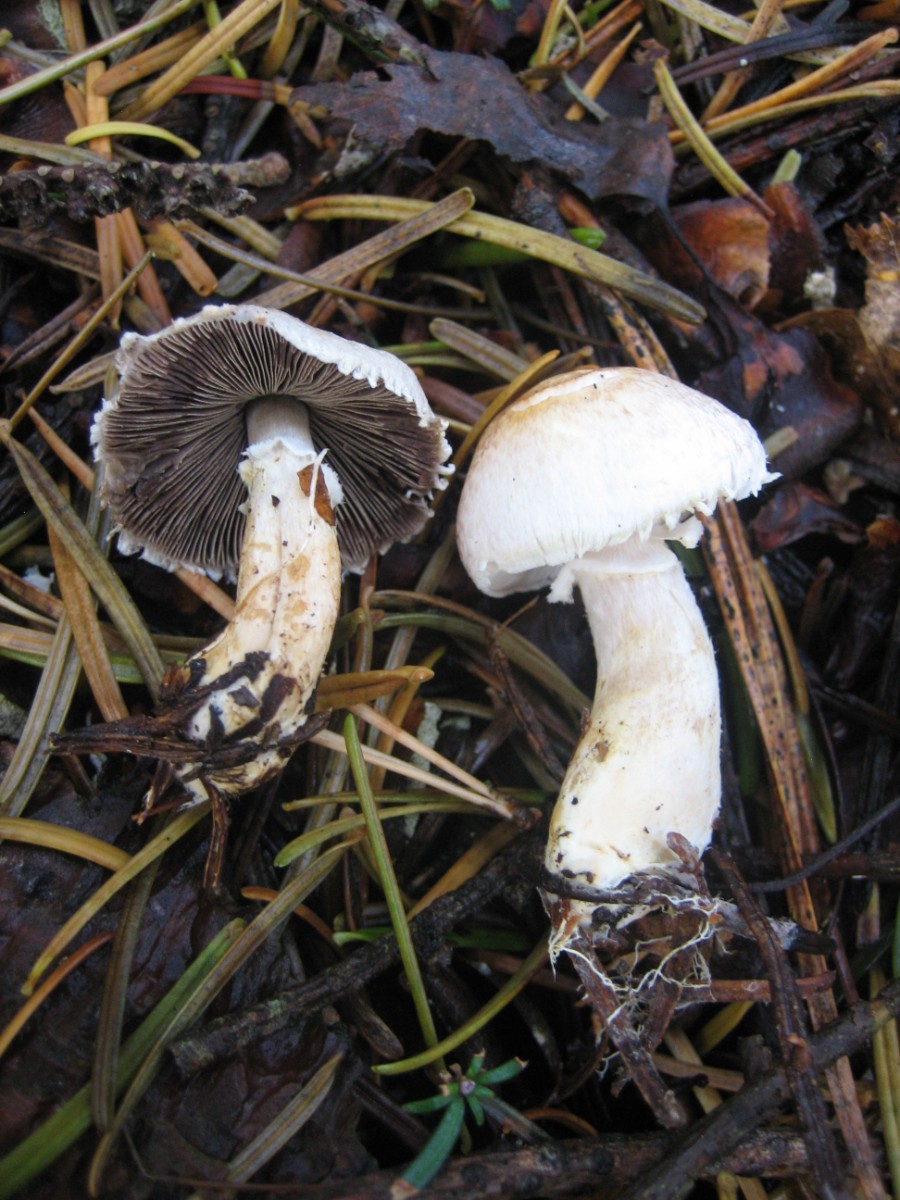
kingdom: Fungi
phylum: Basidiomycota
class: Agaricomycetes
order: Agaricales
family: Agaricaceae
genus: Agaricus
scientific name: Agaricus
